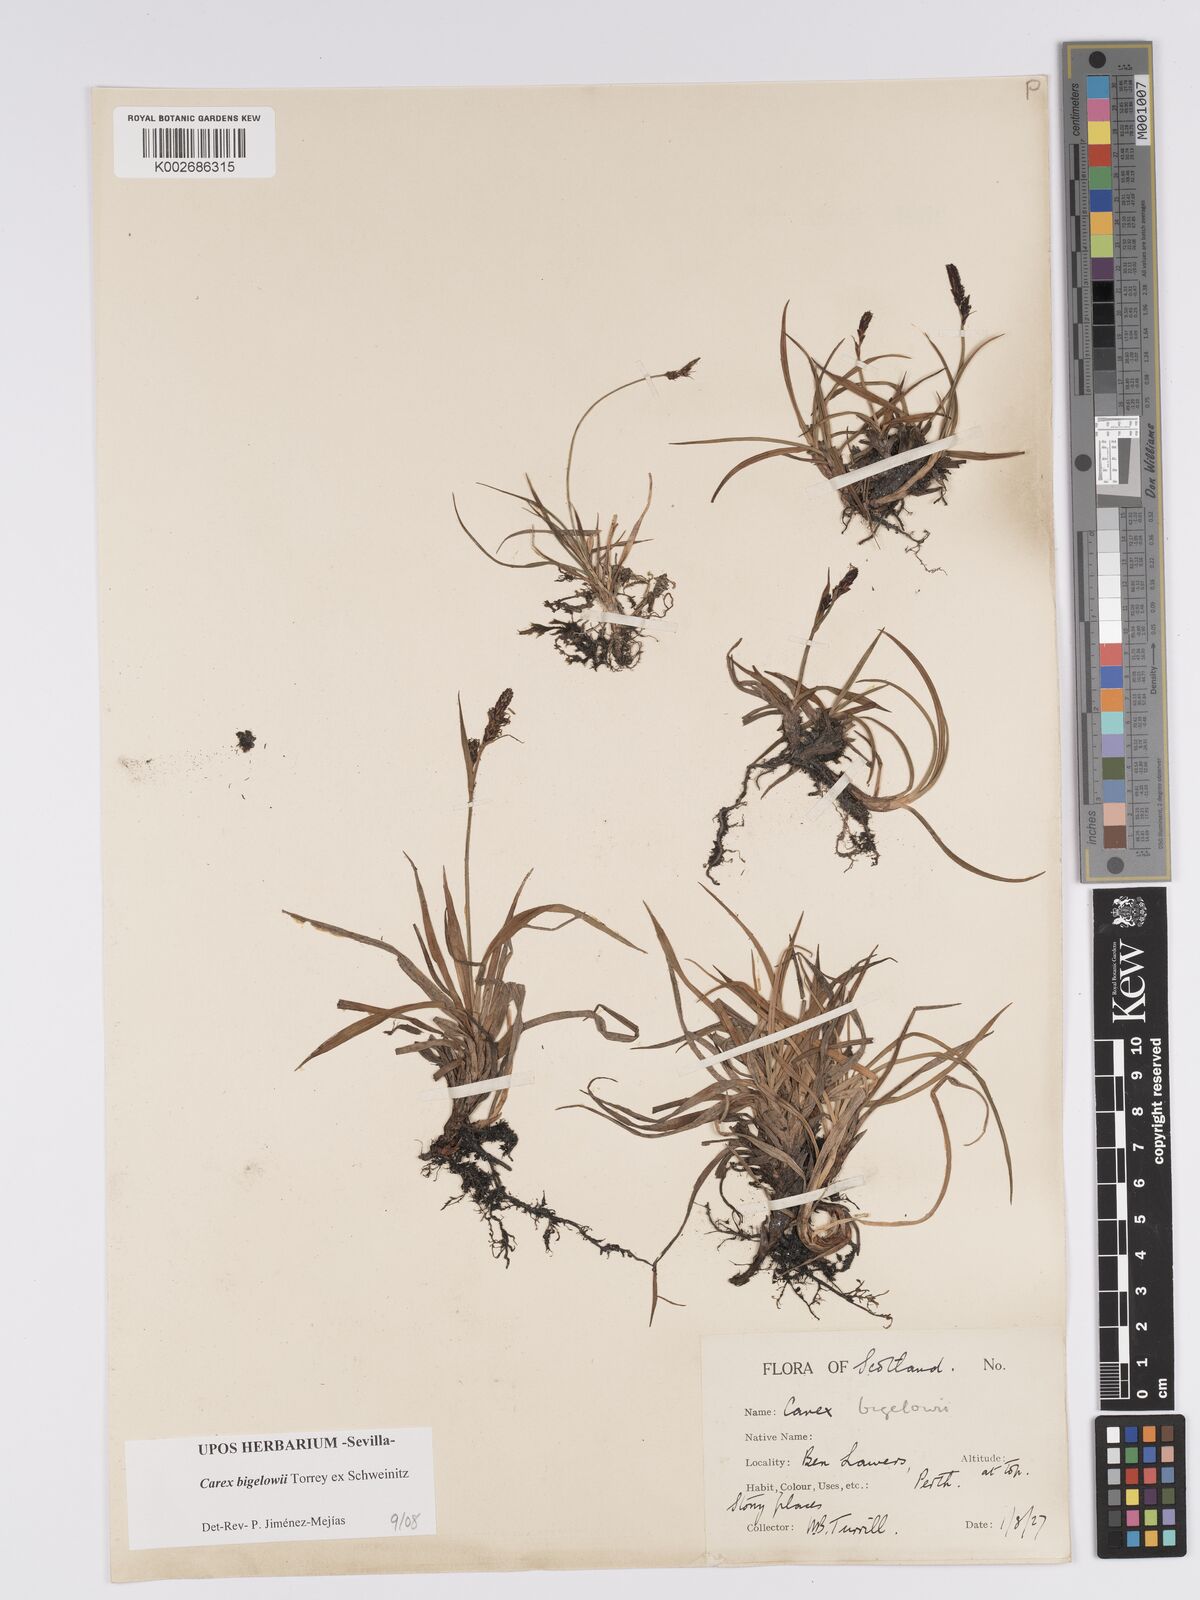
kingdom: Plantae
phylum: Tracheophyta
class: Liliopsida
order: Poales
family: Cyperaceae
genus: Carex
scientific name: Carex bigelowii
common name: Stiff sedge
